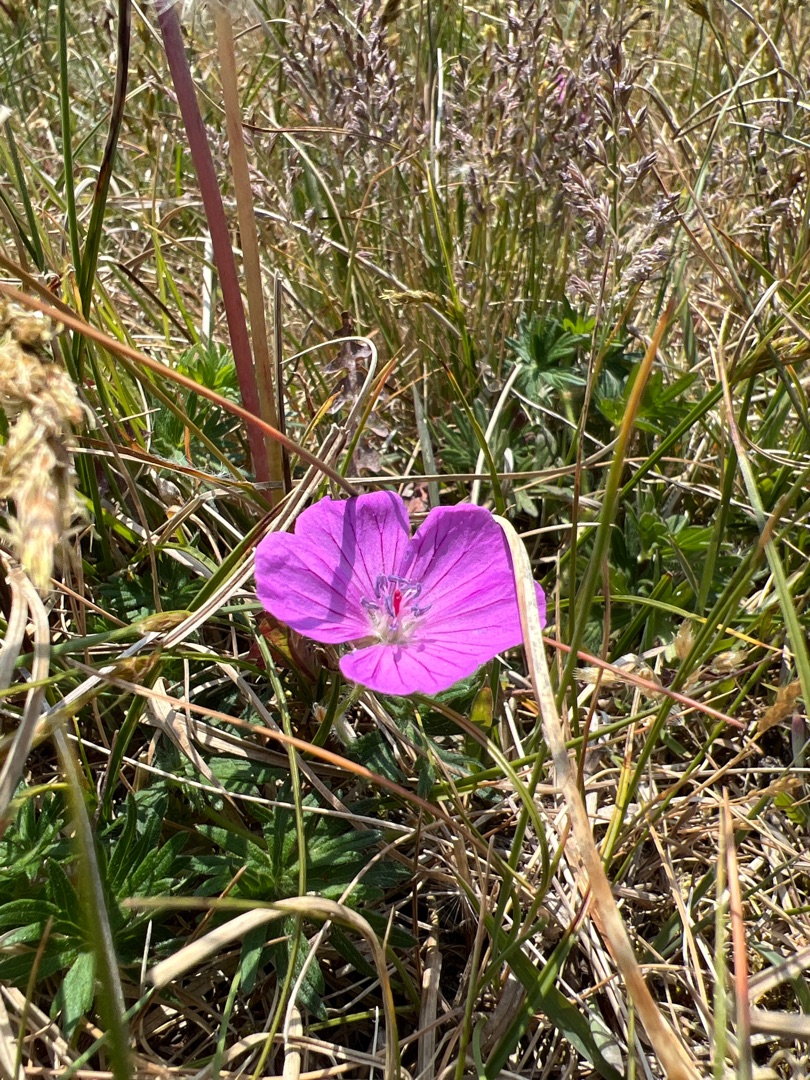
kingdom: Plantae
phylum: Tracheophyta
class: Magnoliopsida
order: Geraniales
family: Geraniaceae
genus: Geranium
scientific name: Geranium sanguineum
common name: Blodrød storkenæb
